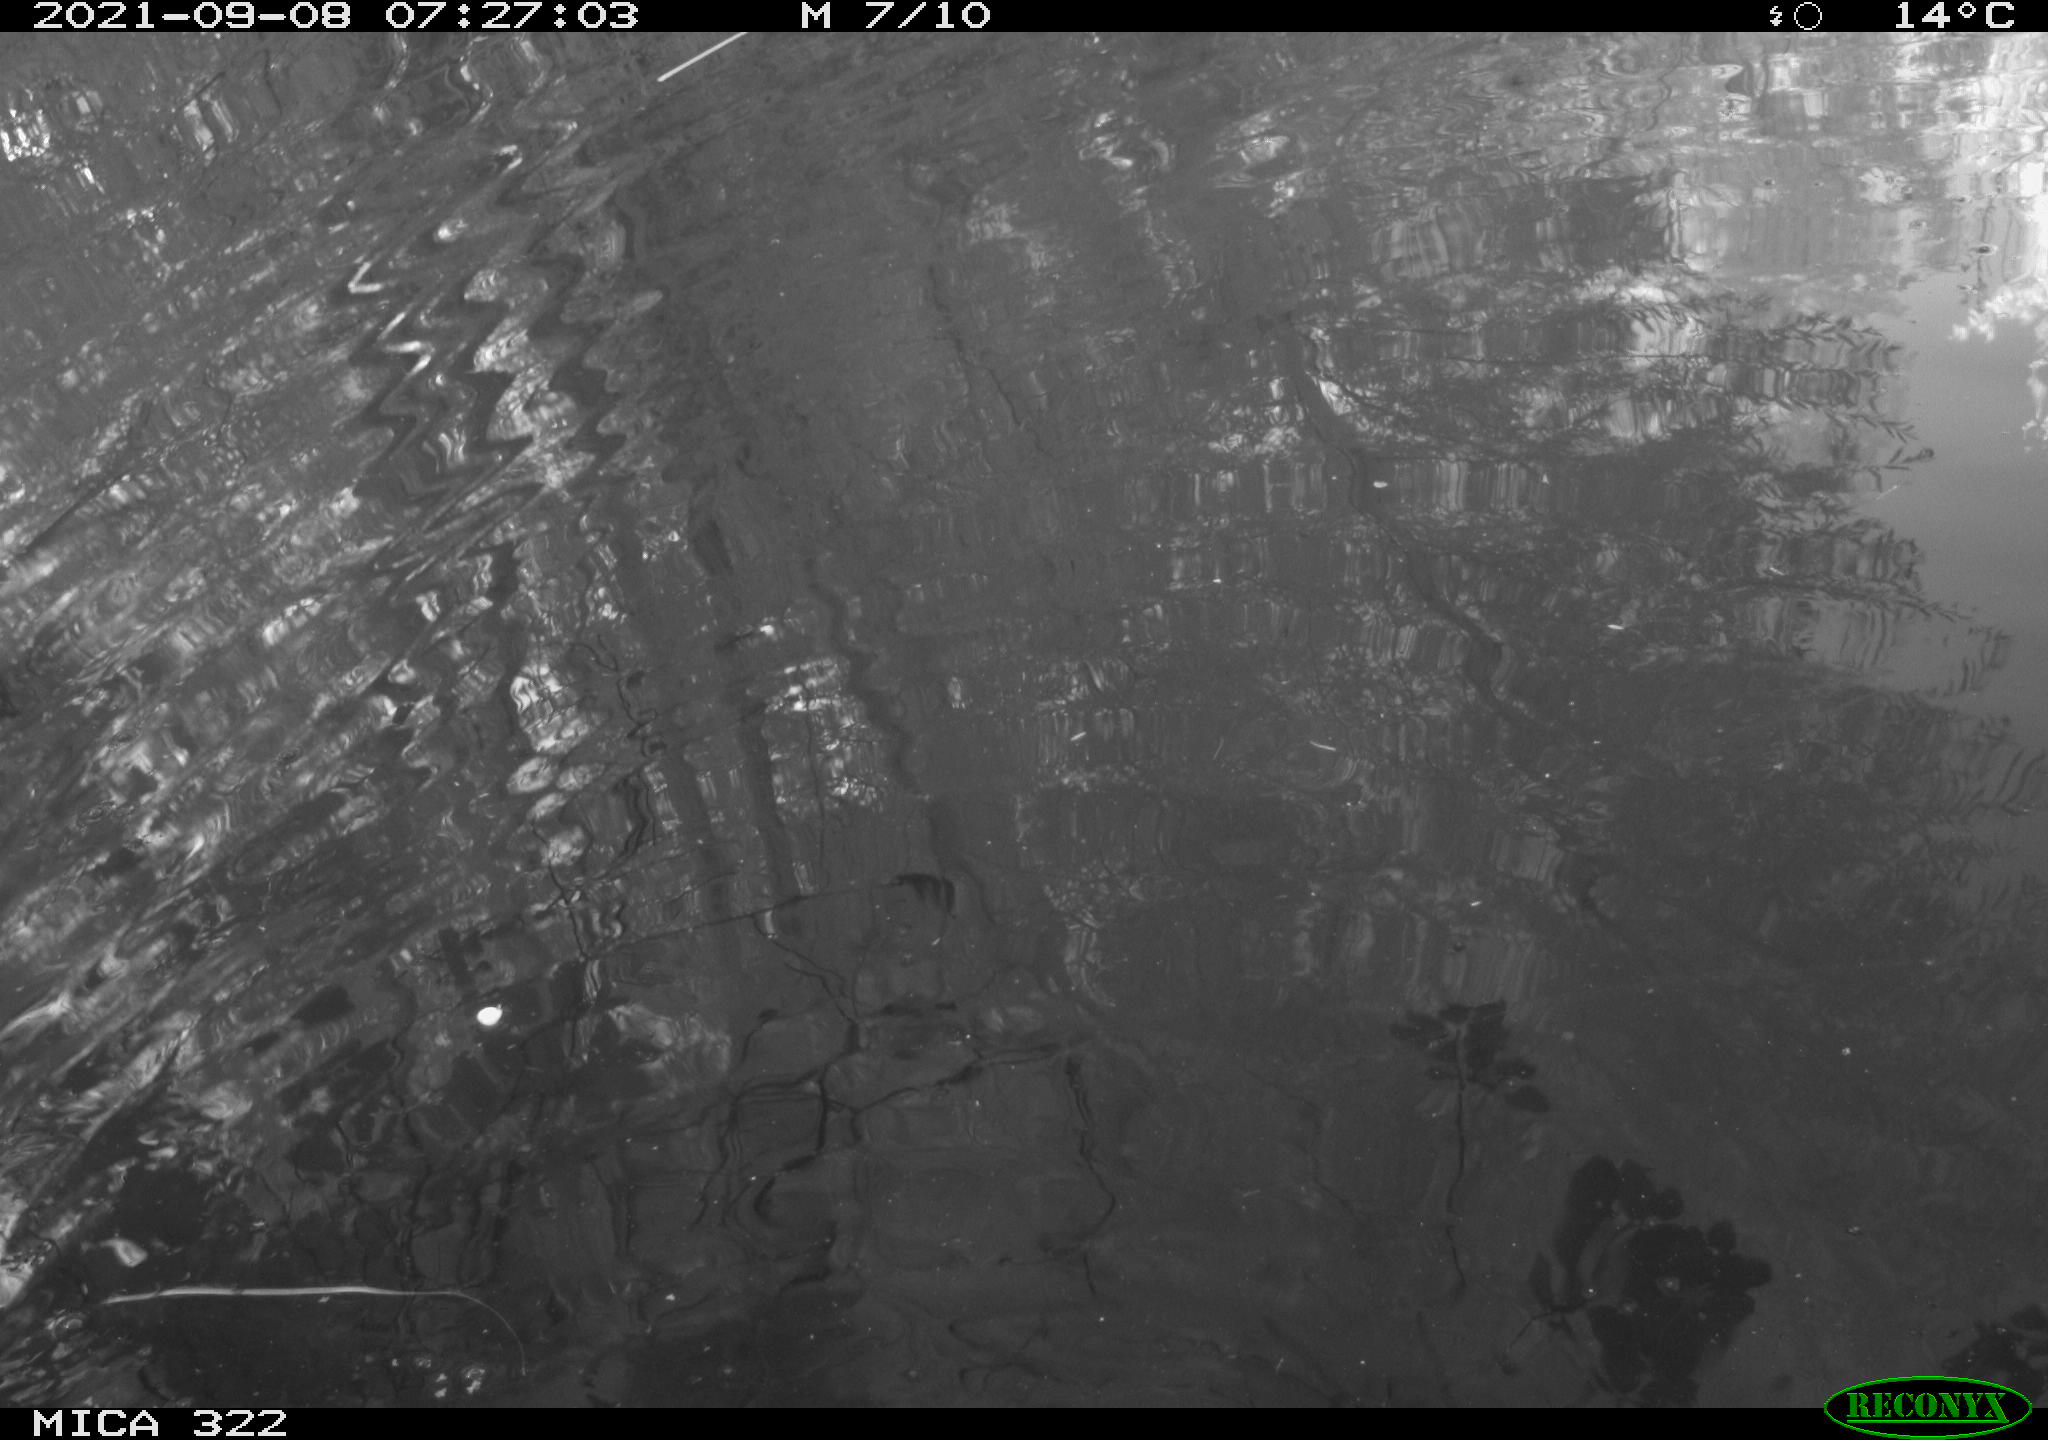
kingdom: Animalia
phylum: Chordata
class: Aves
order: Gruiformes
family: Rallidae
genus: Gallinula
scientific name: Gallinula chloropus
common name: Common moorhen
